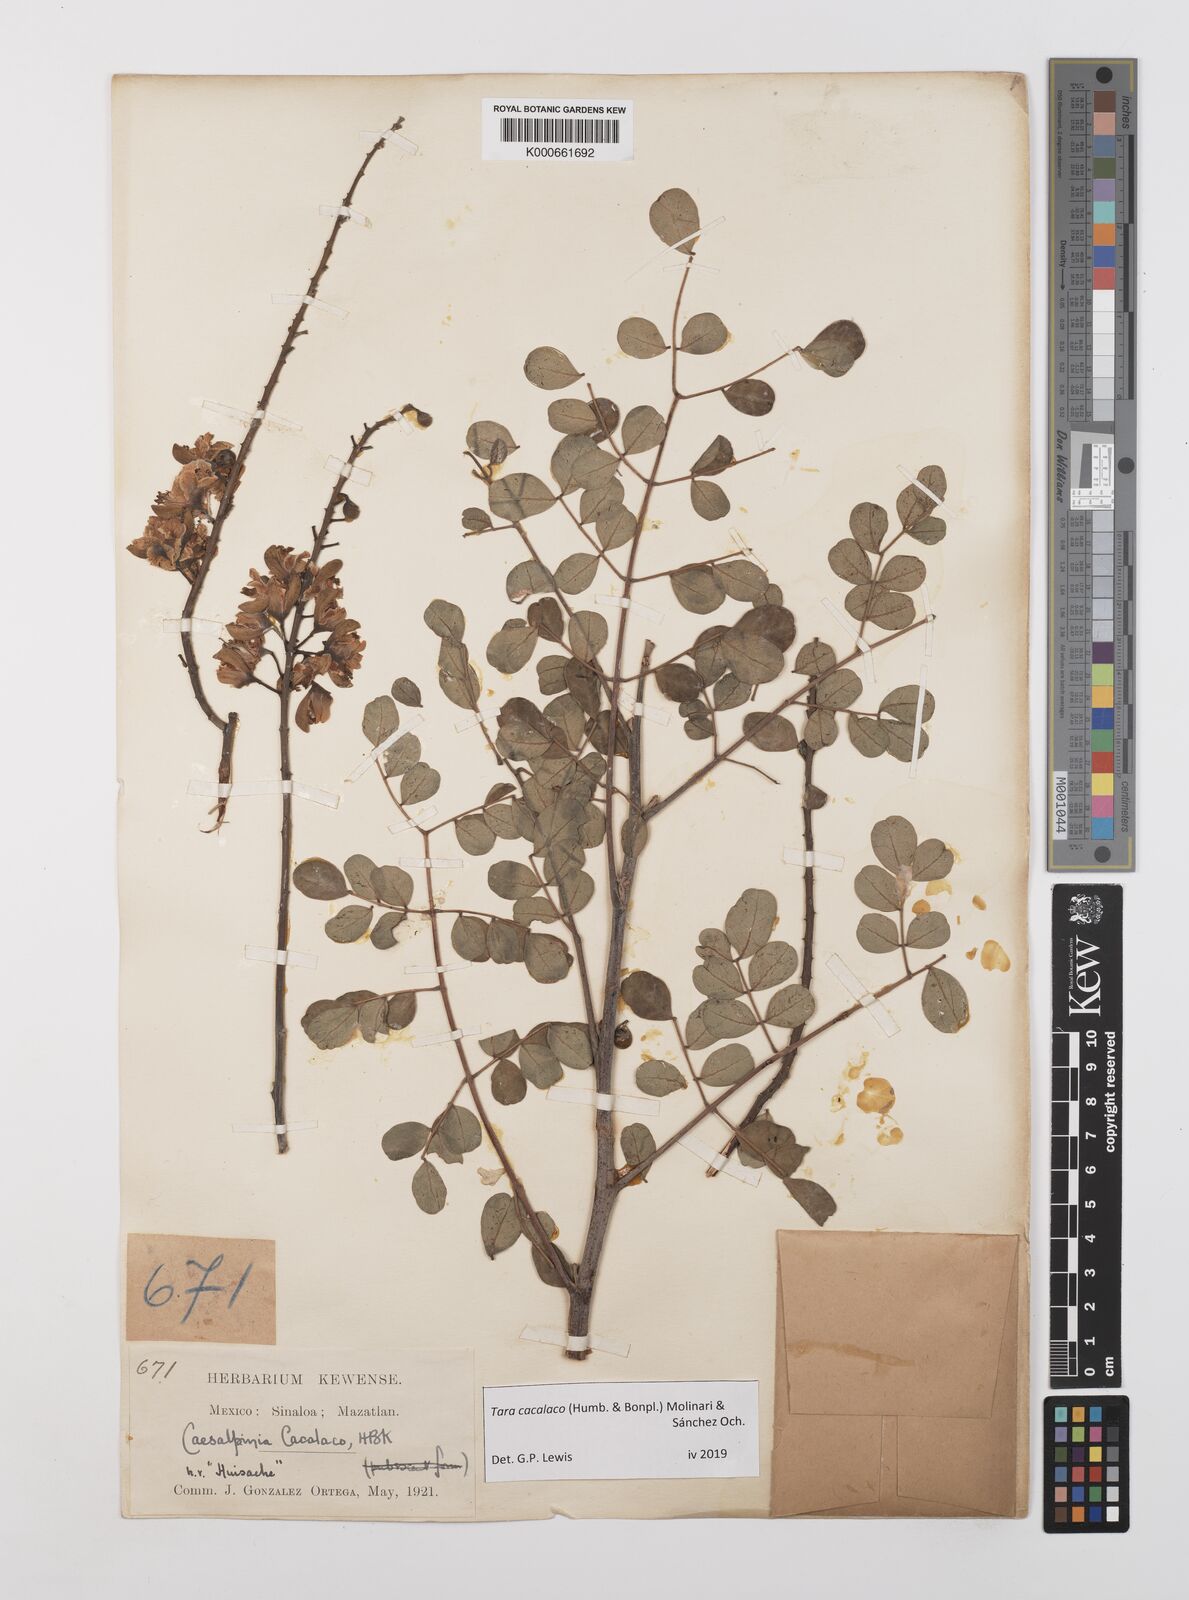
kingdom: Plantae
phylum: Tracheophyta
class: Magnoliopsida
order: Fabales
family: Fabaceae
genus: Tara
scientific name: Tara cacalaco
